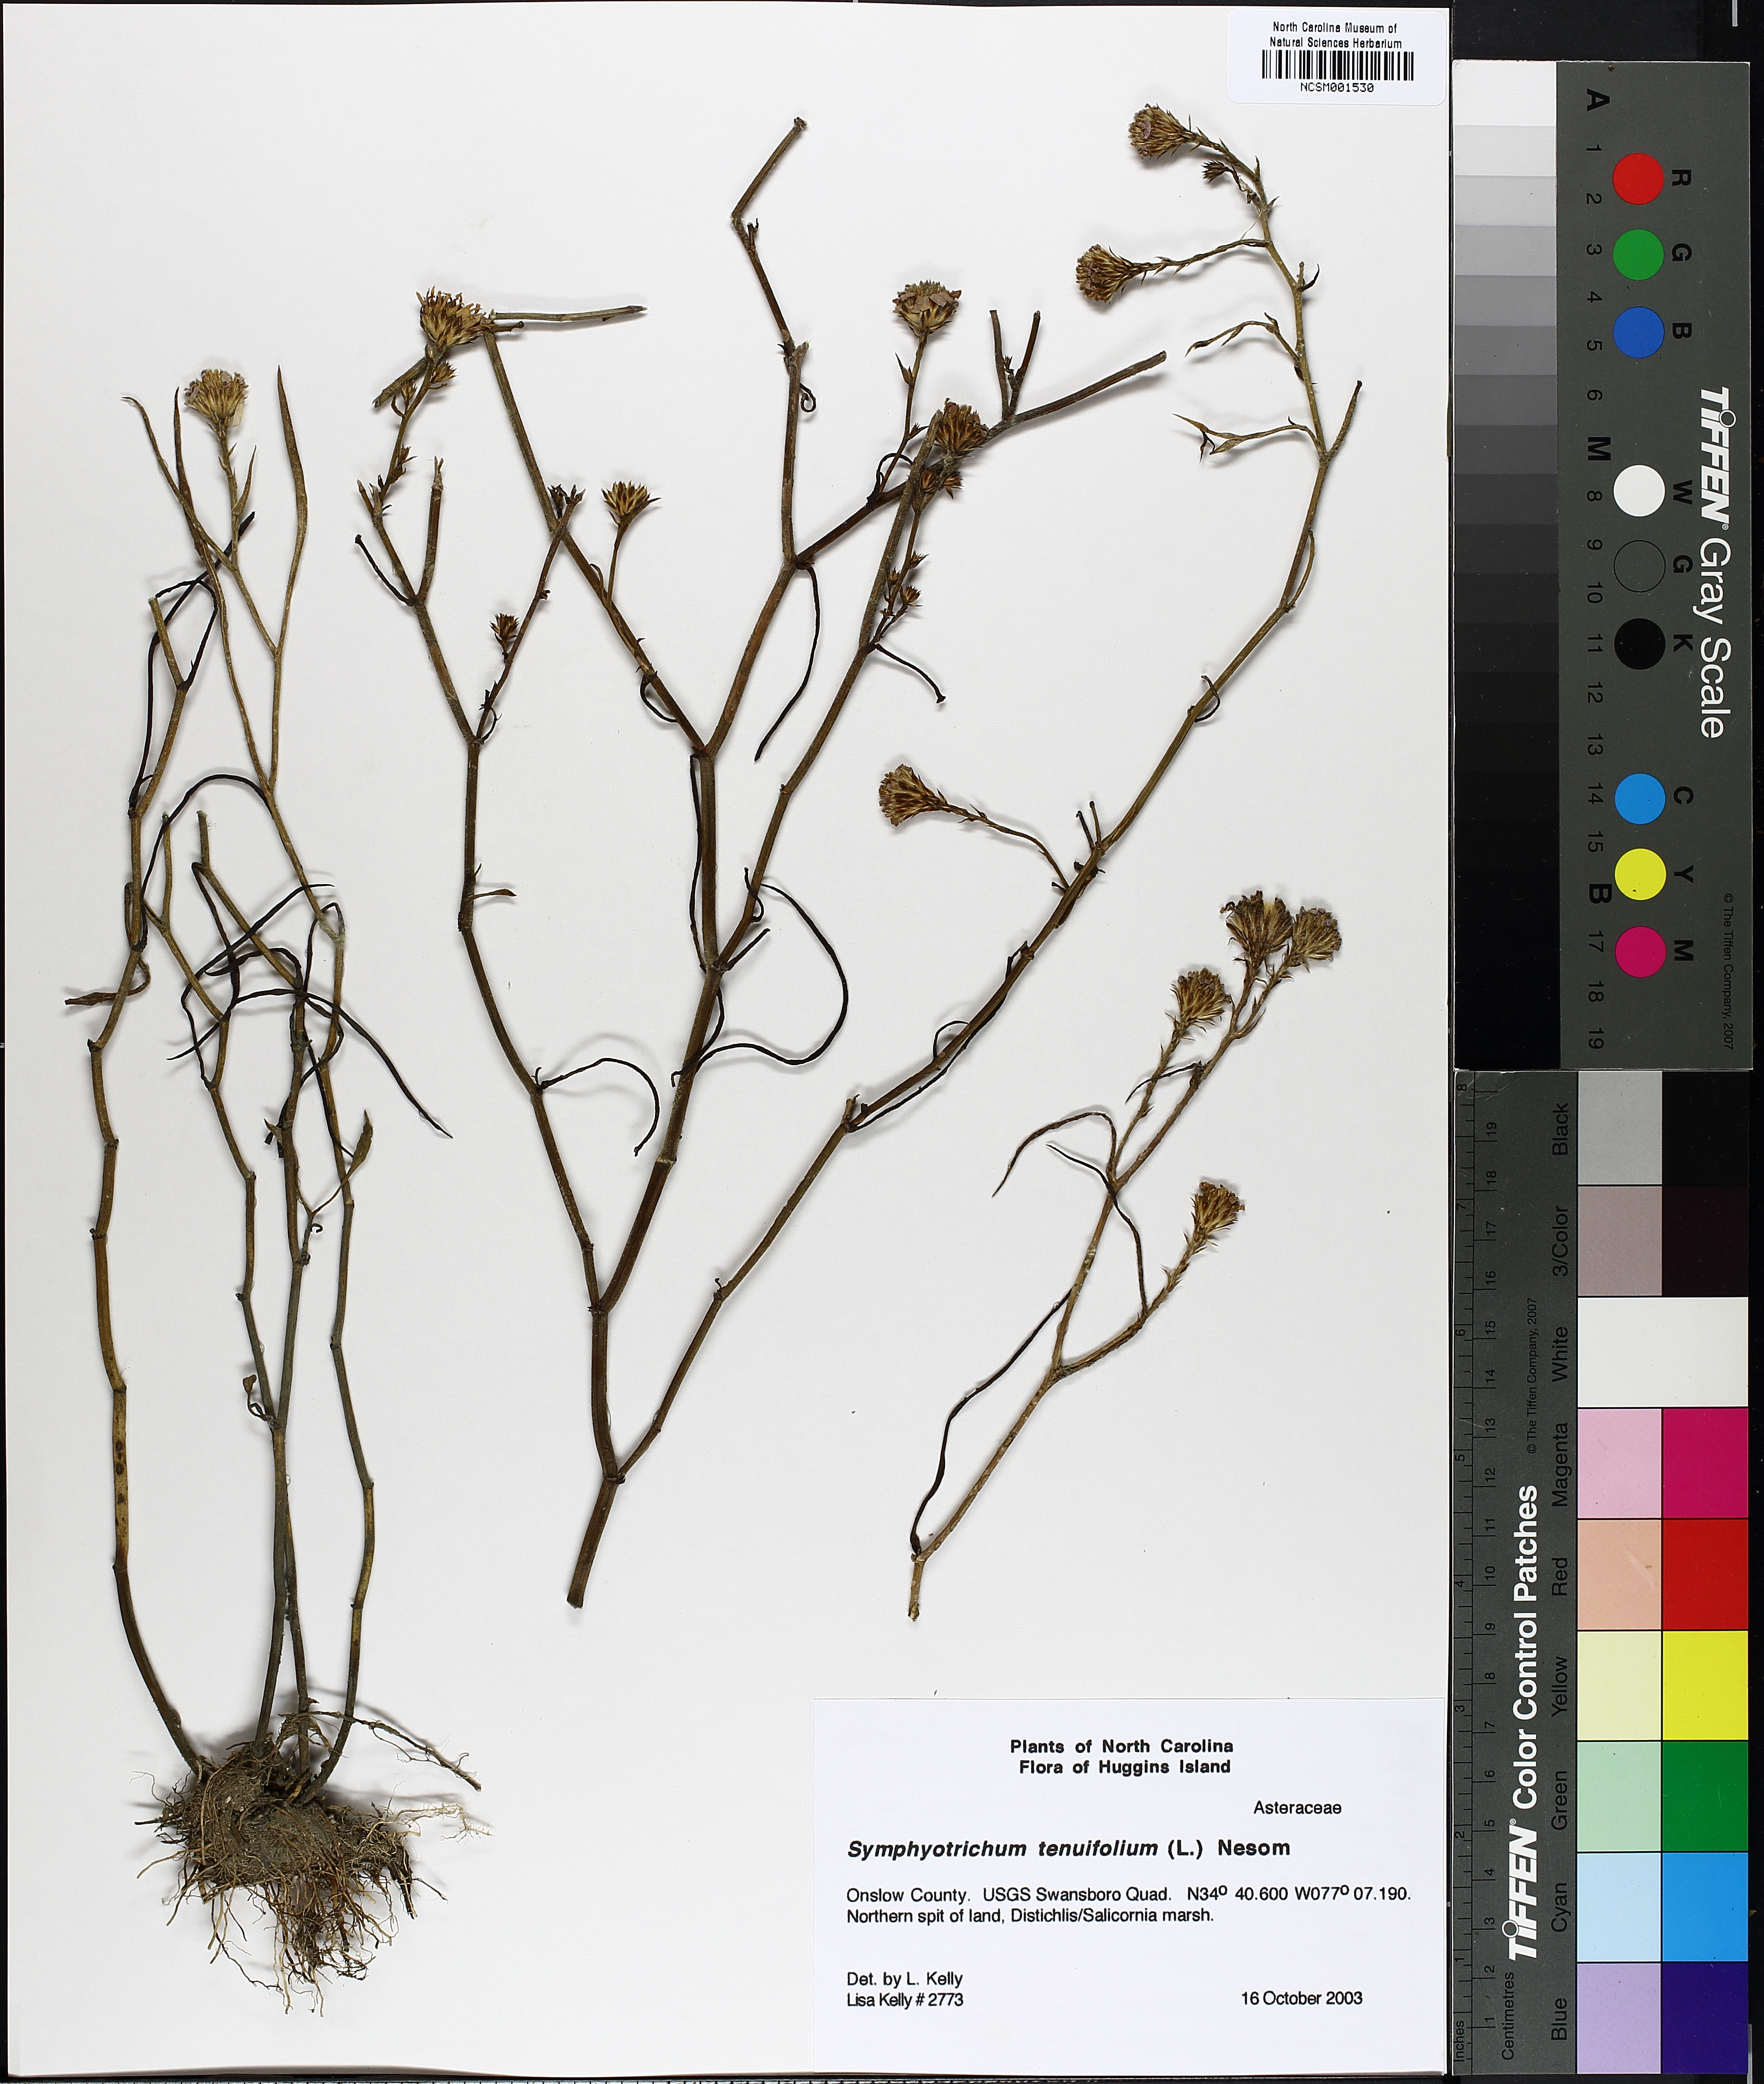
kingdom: Plantae
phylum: Tracheophyta
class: Magnoliopsida
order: Asterales
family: Asteraceae
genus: Symphyotrichum
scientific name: Symphyotrichum tenuifolium
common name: Perennial salt-marsh aster
